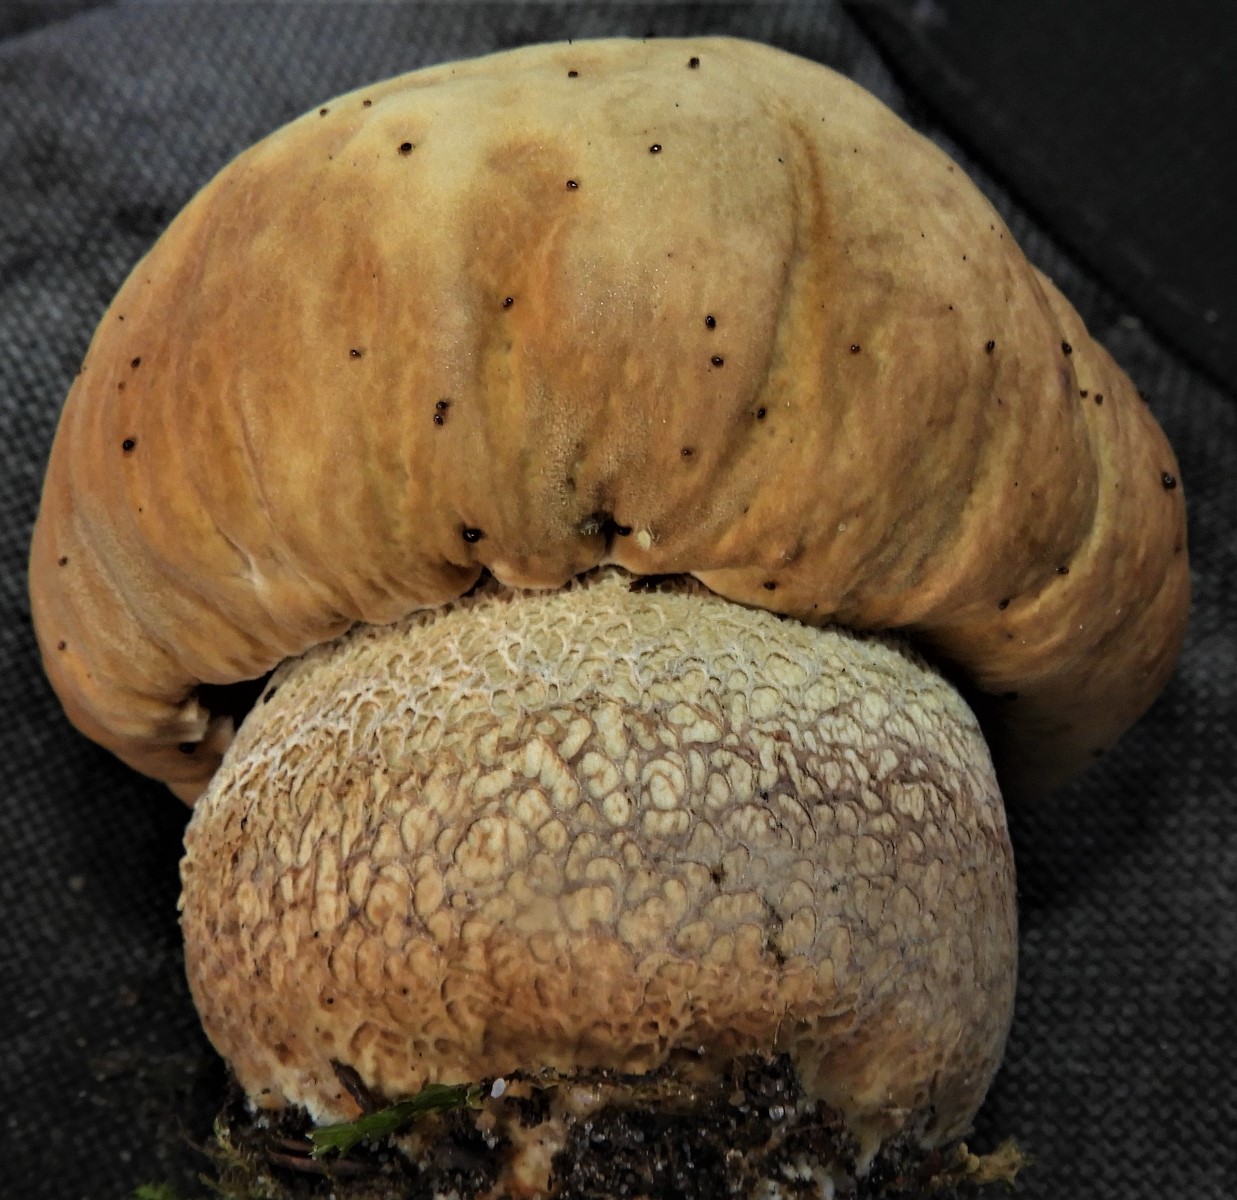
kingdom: Fungi
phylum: Basidiomycota
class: Agaricomycetes
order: Boletales
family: Boletaceae
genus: Boletus
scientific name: Boletus reticulatus
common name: sommer-rørhat
